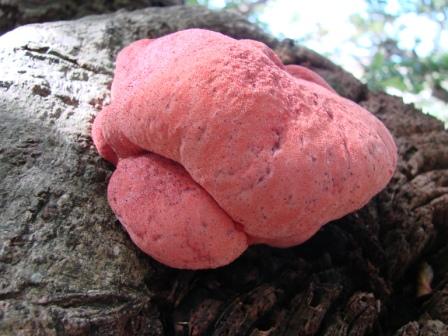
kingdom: Fungi
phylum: Basidiomycota
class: Agaricomycetes
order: Agaricales
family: Fistulinaceae
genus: Fistulina
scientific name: Fistulina hepatica
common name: oksetunge
